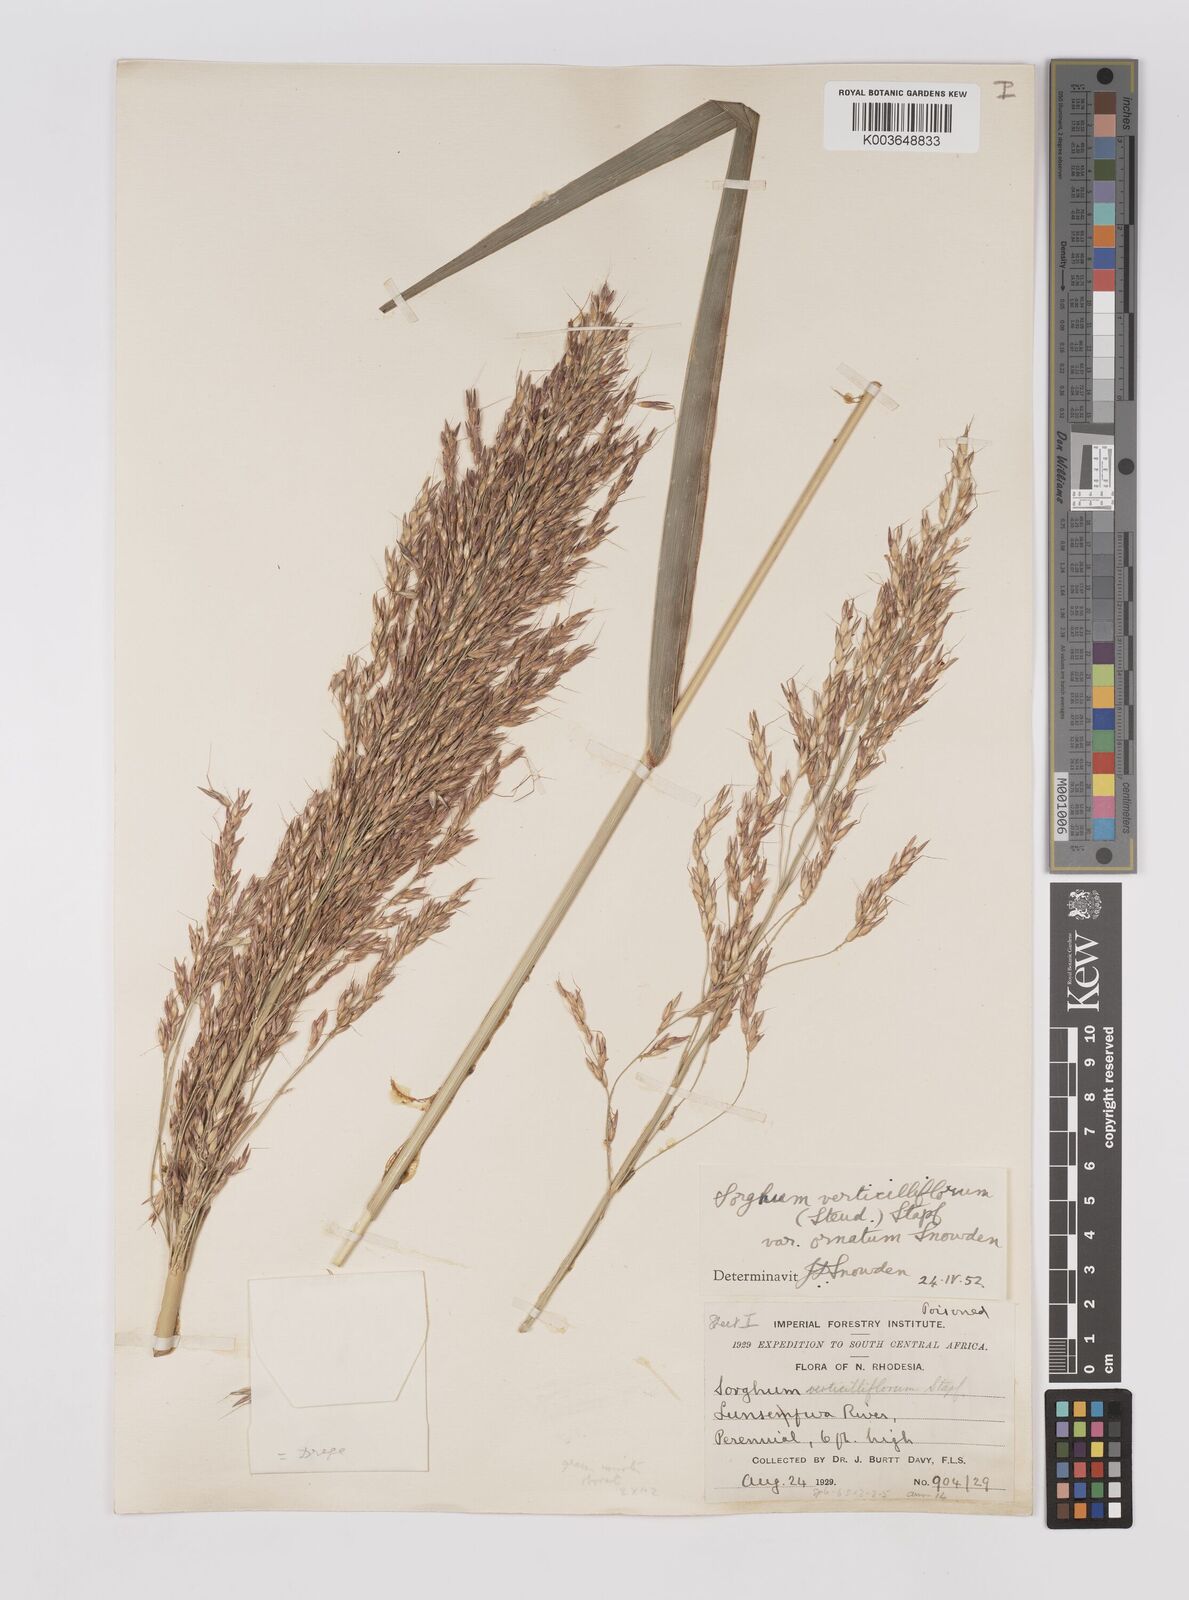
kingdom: Plantae
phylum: Tracheophyta
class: Liliopsida
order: Poales
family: Poaceae
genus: Sorghum
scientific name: Sorghum arundinaceum
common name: Sorghum
